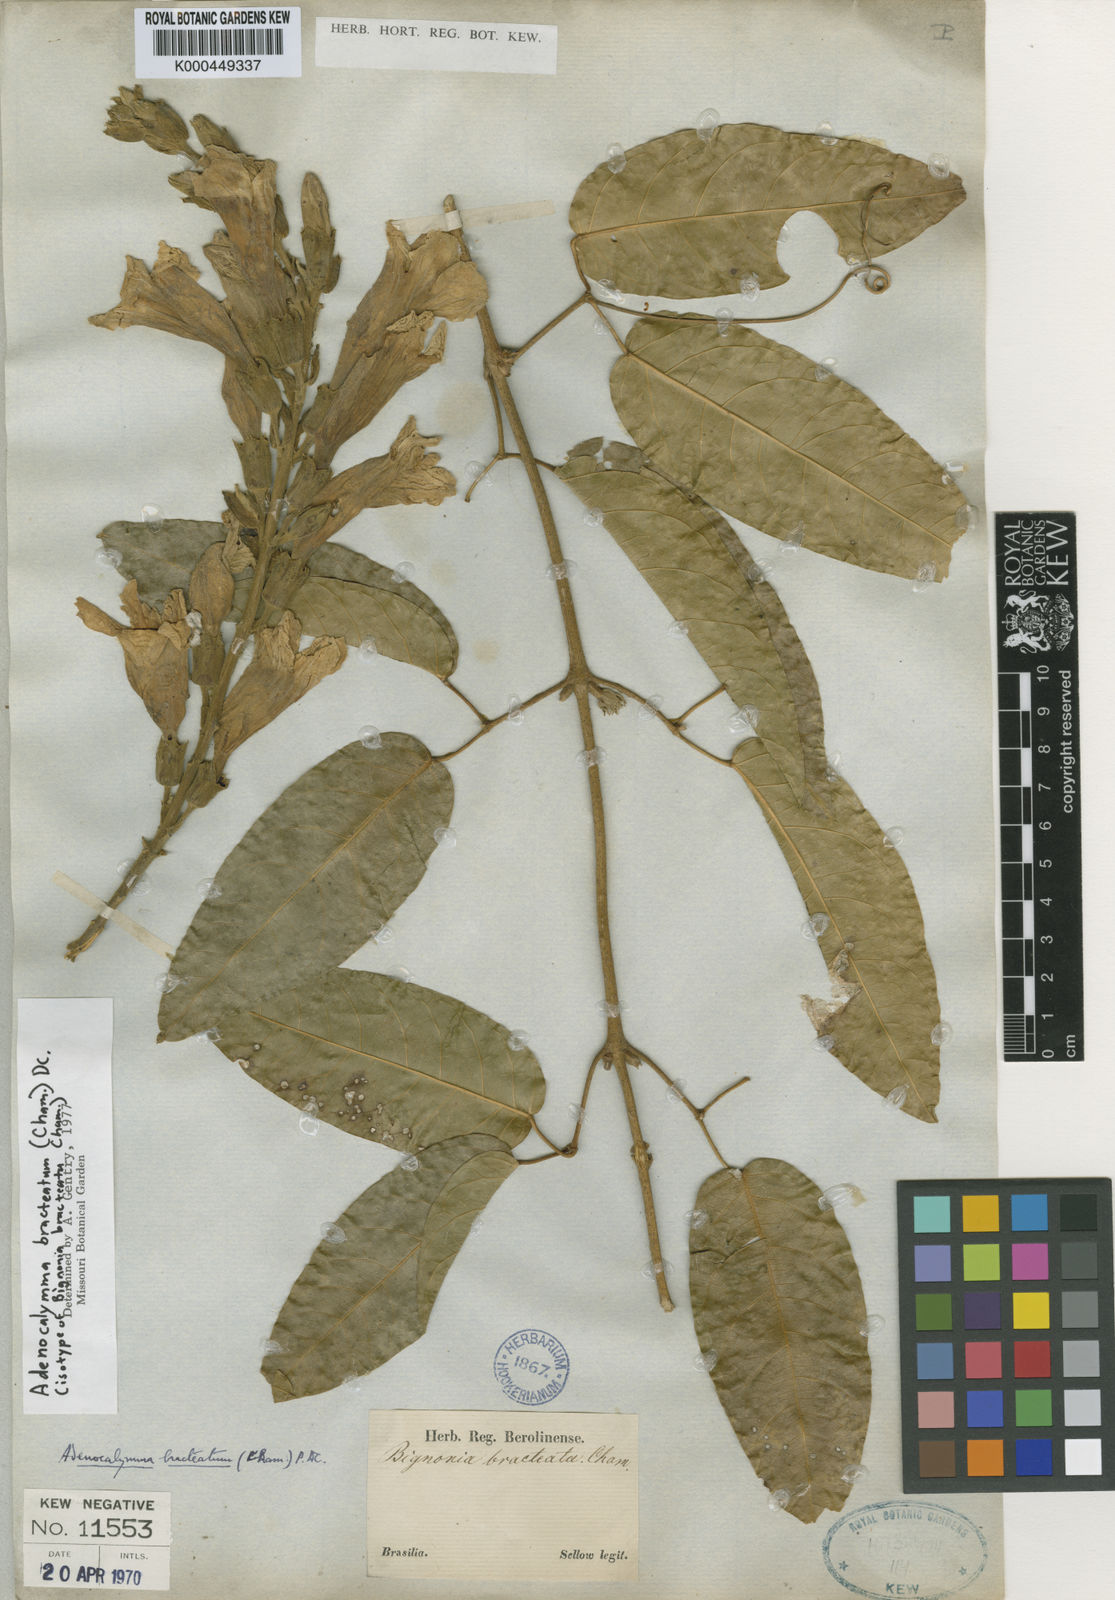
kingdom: Plantae
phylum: Tracheophyta
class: Magnoliopsida
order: Lamiales
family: Bignoniaceae
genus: Adenocalymma
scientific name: Adenocalymma bracteatum
